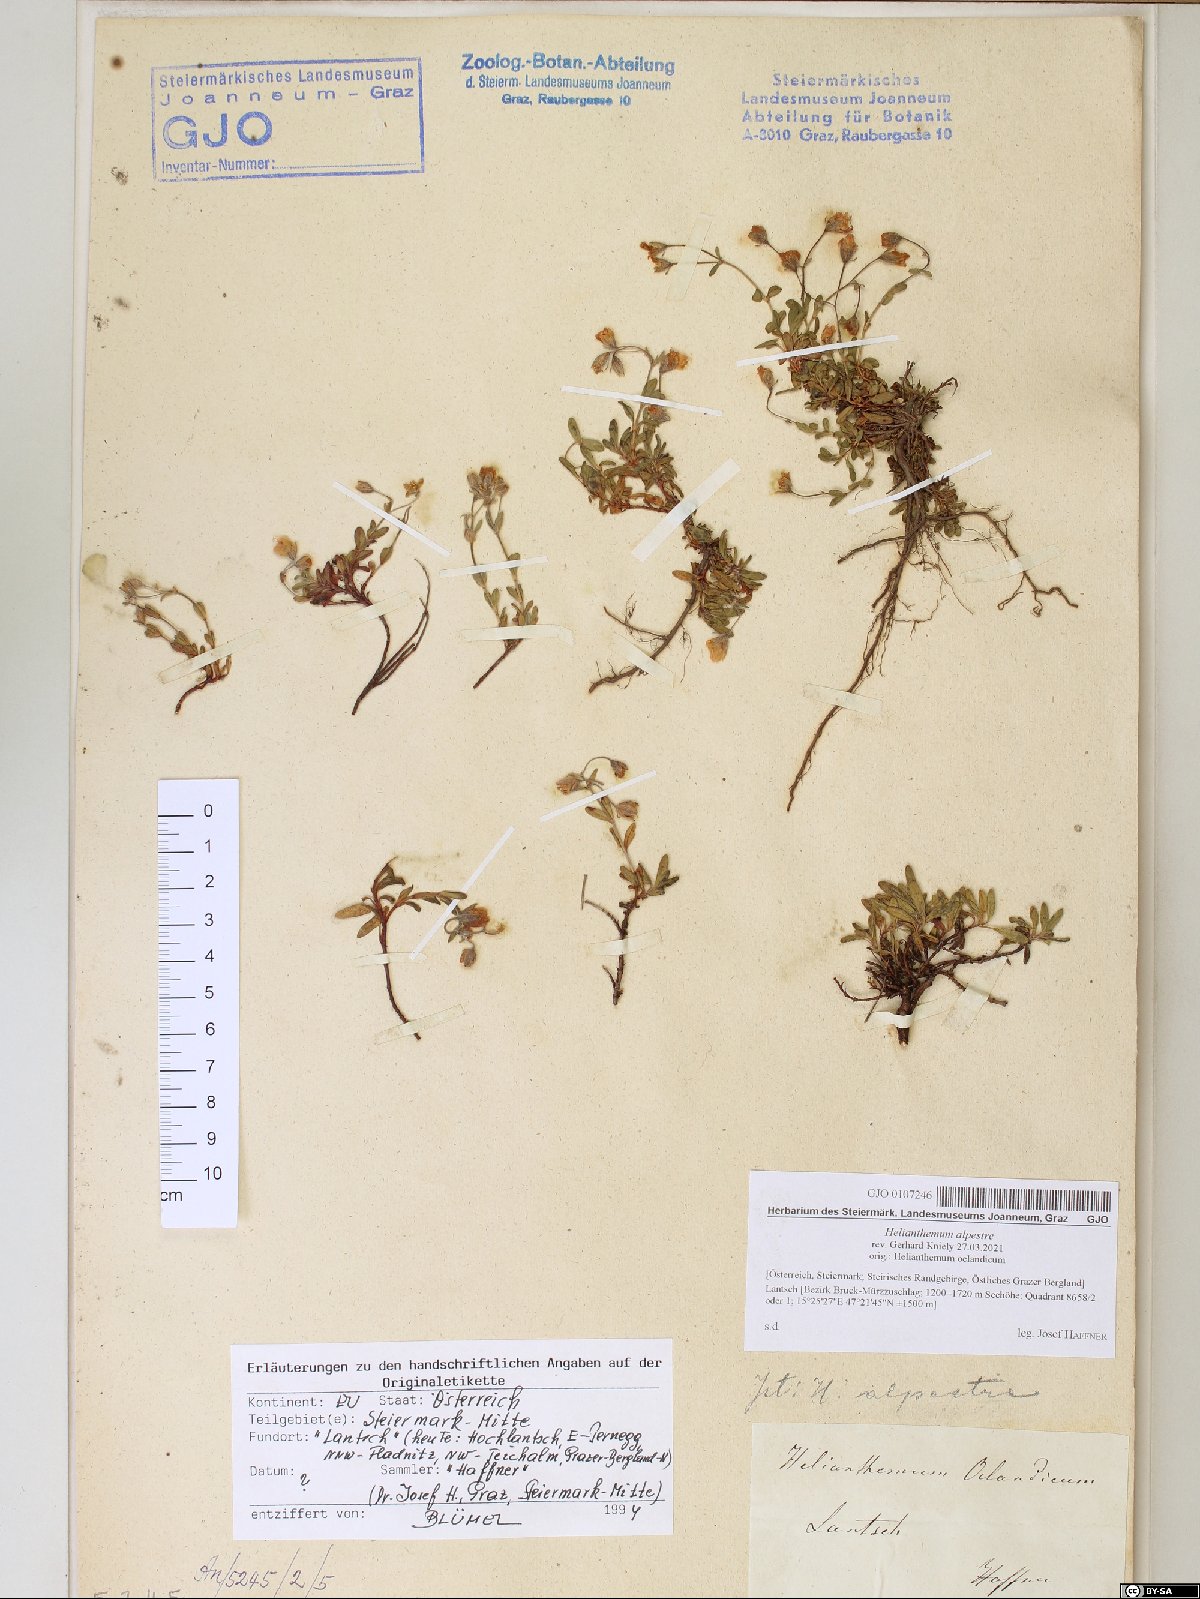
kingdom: Plantae
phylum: Tracheophyta
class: Magnoliopsida
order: Malvales
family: Cistaceae
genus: Helianthemum
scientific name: Helianthemum alpestre
